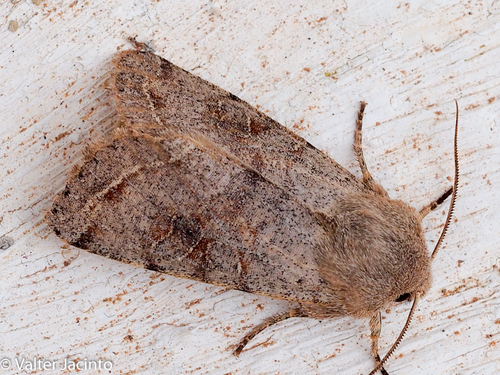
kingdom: Animalia
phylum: Arthropoda
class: Insecta
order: Lepidoptera
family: Noctuidae
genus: Orthosia
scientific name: Orthosia incerta
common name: Clouded drab
